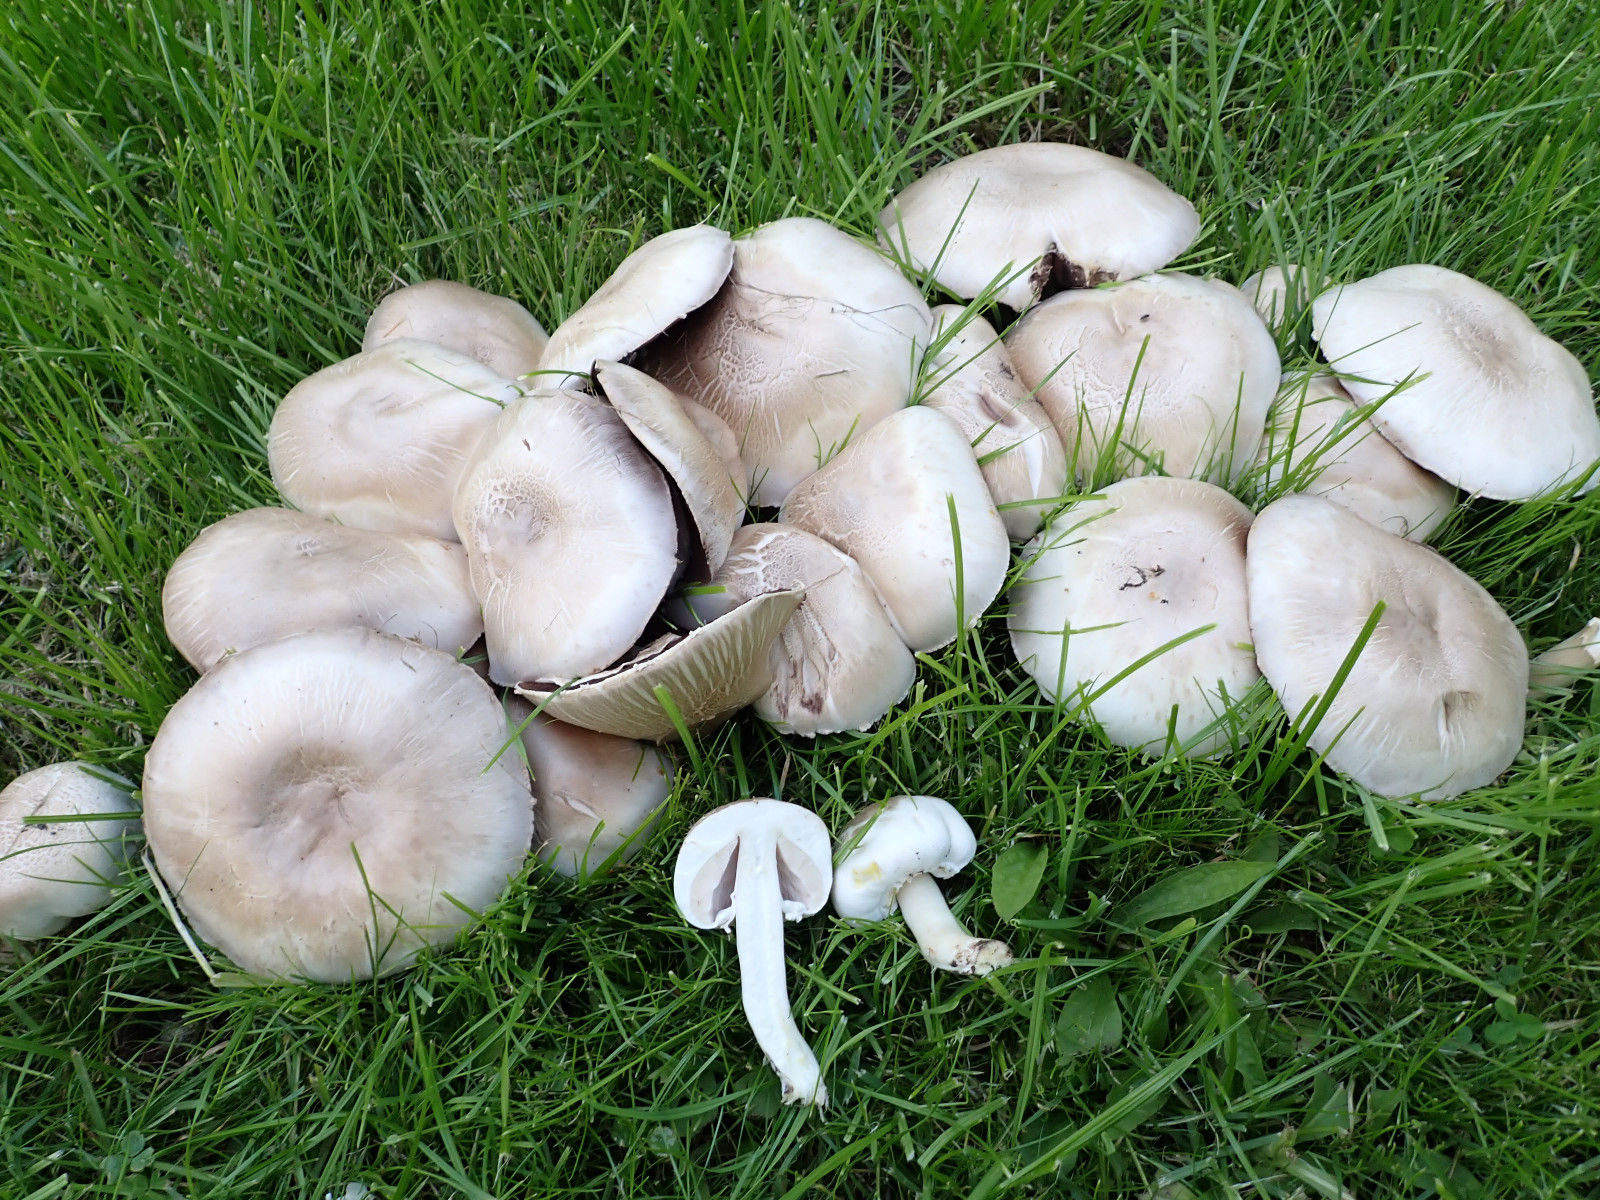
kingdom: Fungi
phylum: Basidiomycota
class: Agaricomycetes
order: Agaricales
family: Agaricaceae
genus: Agaricus
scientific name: Agaricus xanthodermus
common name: karbol-champignon
